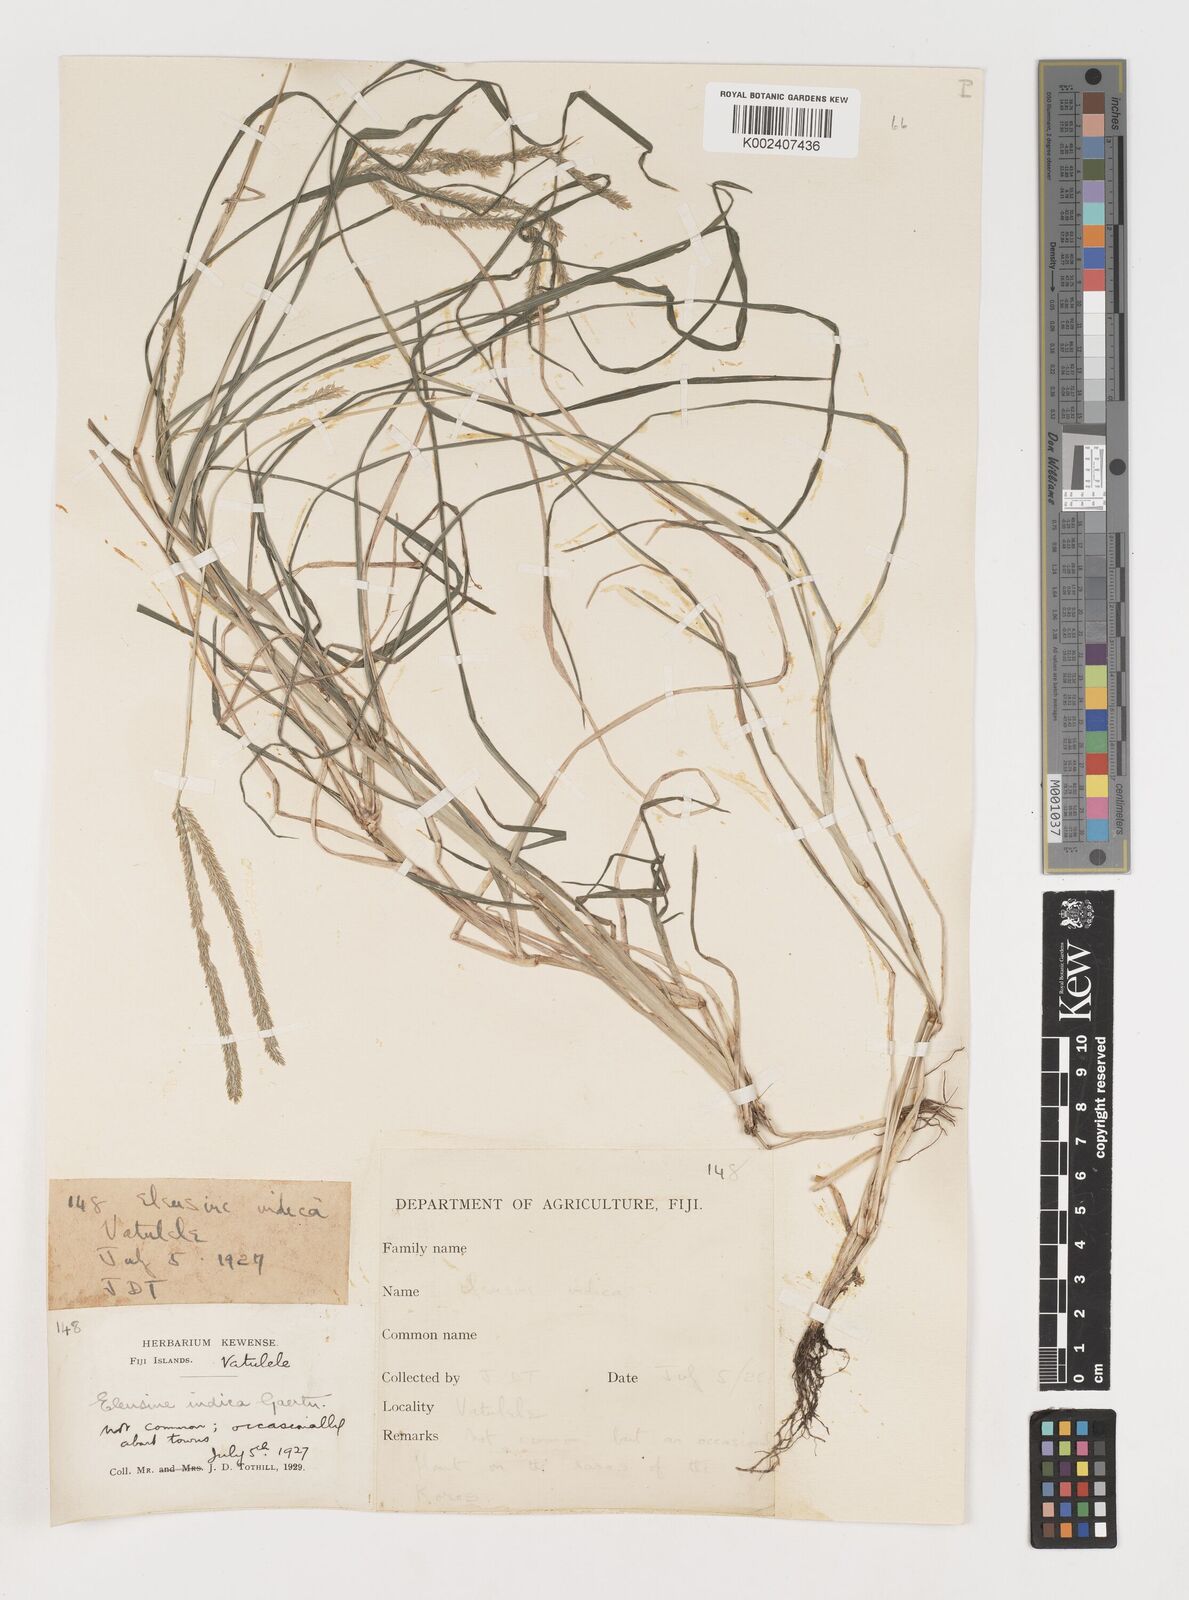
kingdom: Plantae
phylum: Tracheophyta
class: Liliopsida
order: Poales
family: Poaceae
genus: Eleusine
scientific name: Eleusine indica
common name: Yard-grass
